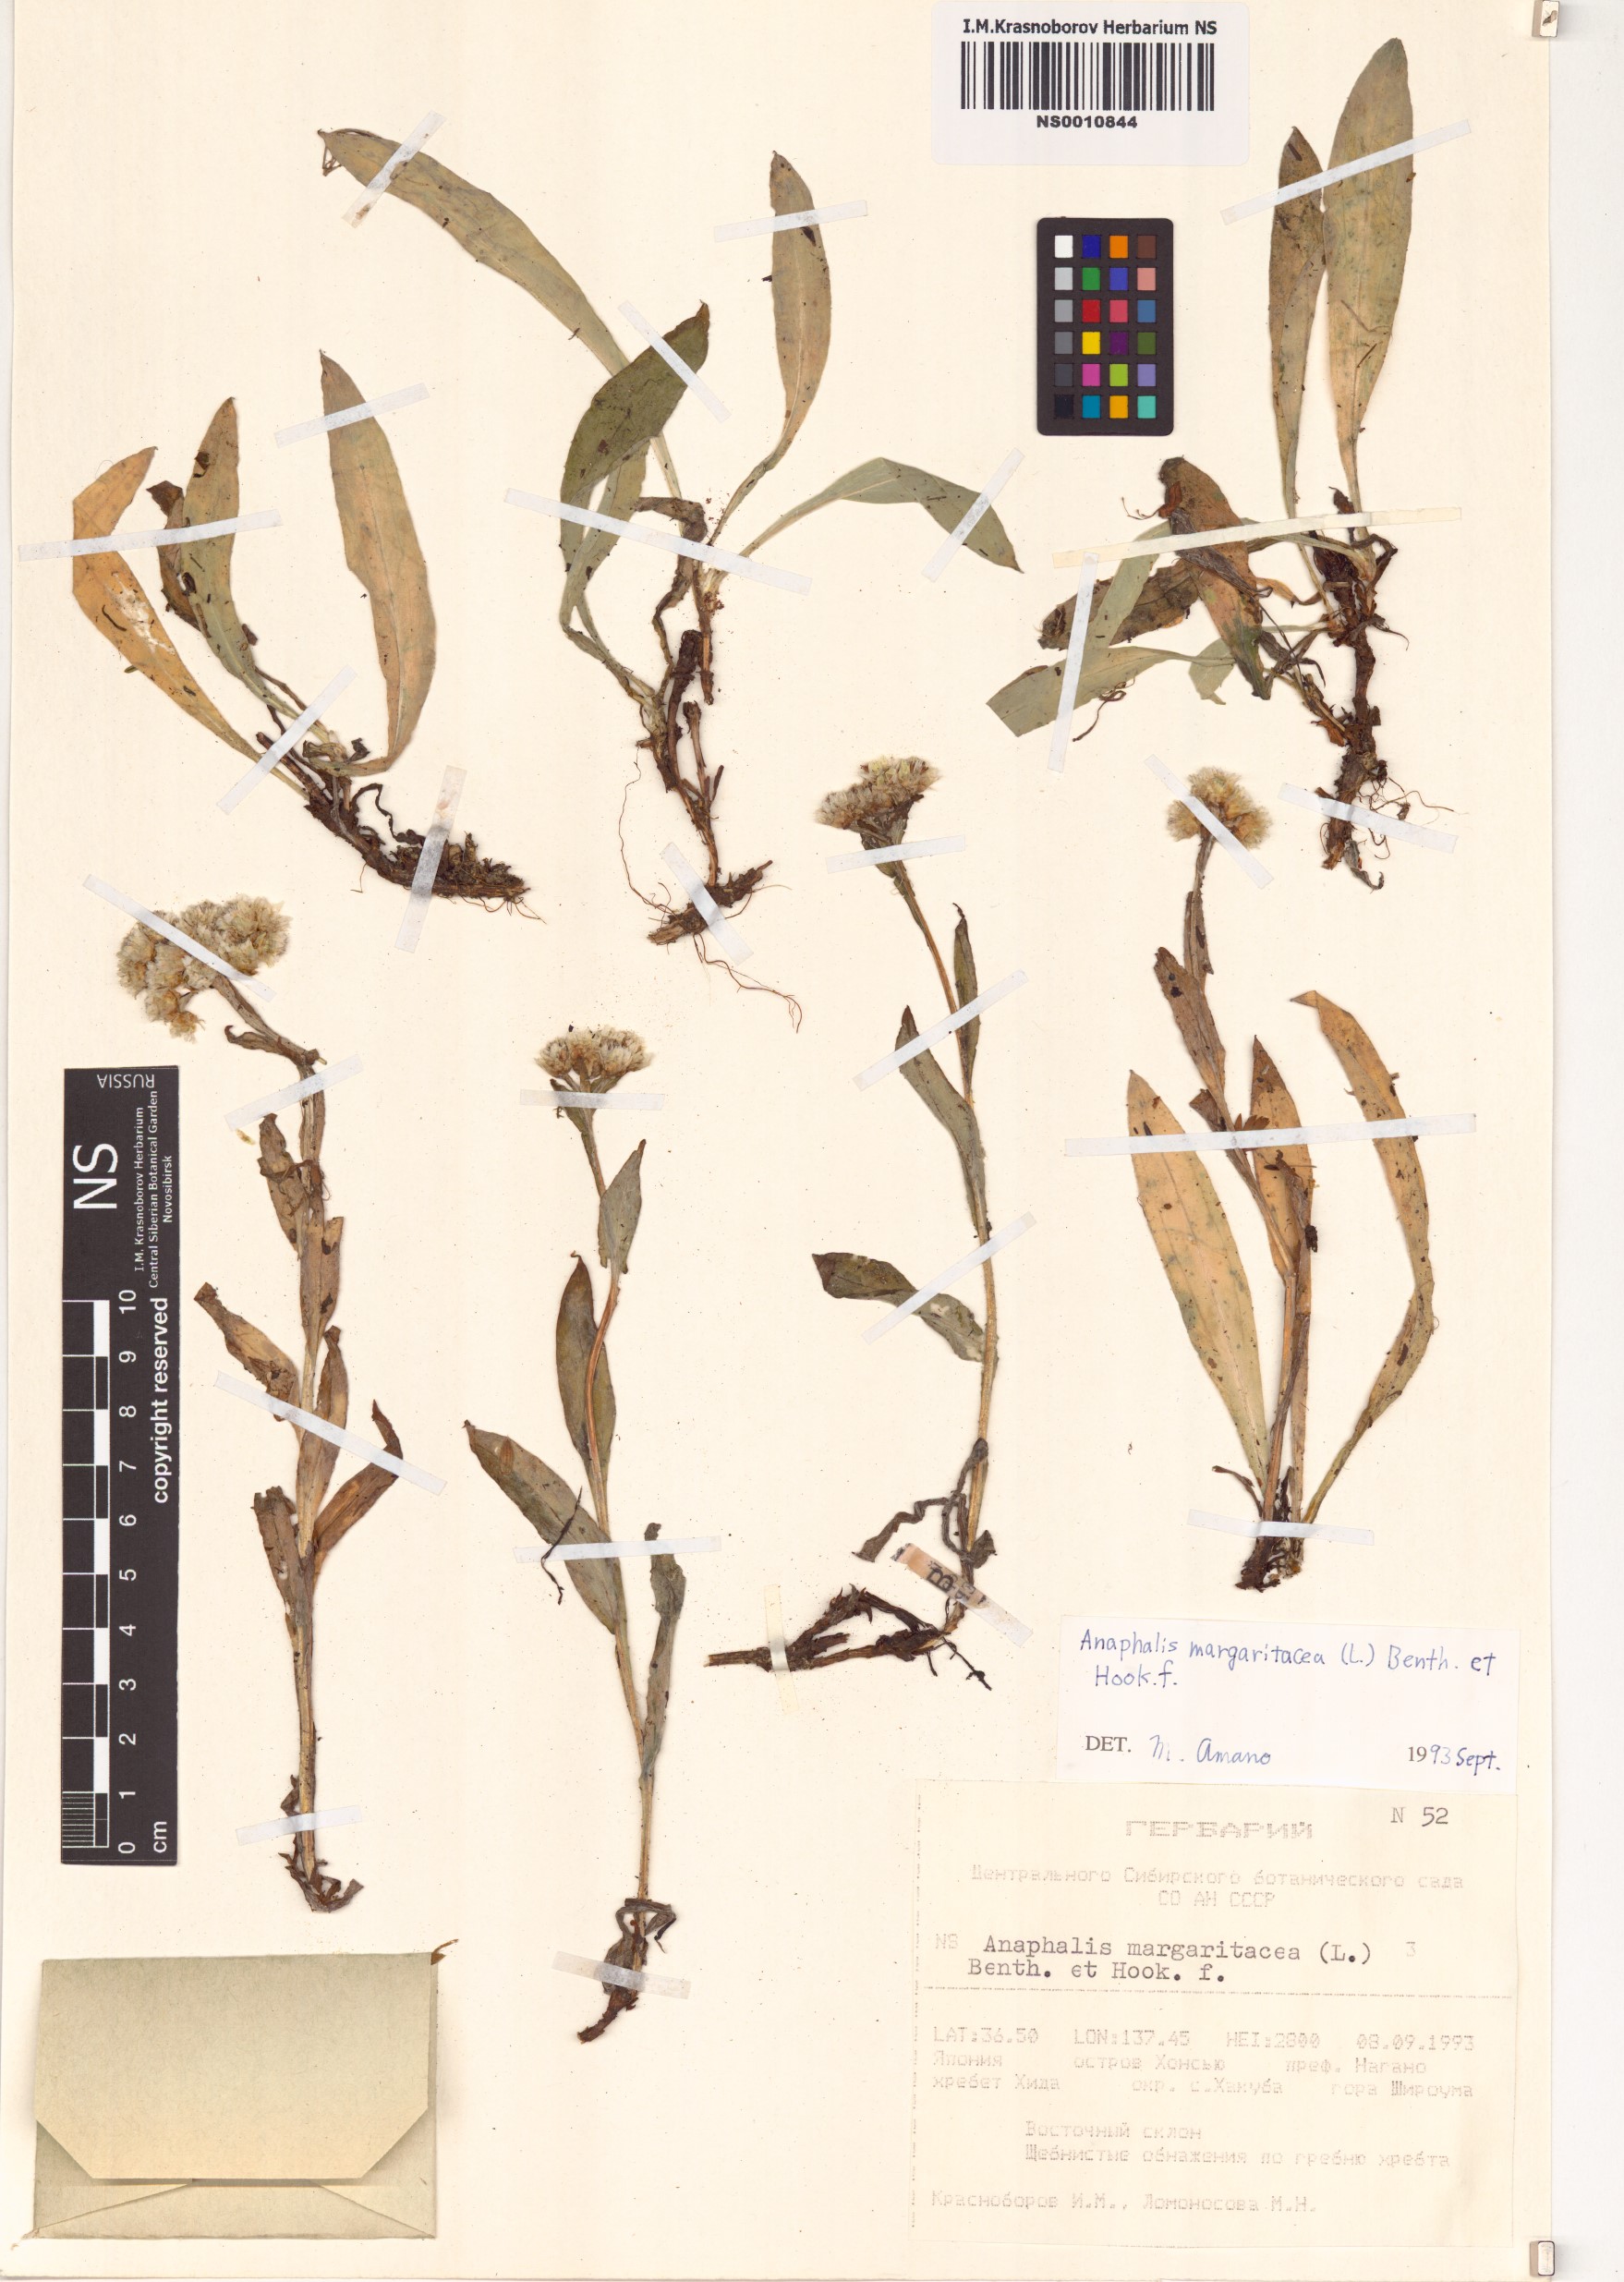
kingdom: Plantae
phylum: Tracheophyta
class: Magnoliopsida
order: Asterales
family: Asteraceae
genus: Anaphalis
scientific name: Anaphalis margaritacea
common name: Pearly everlasting
